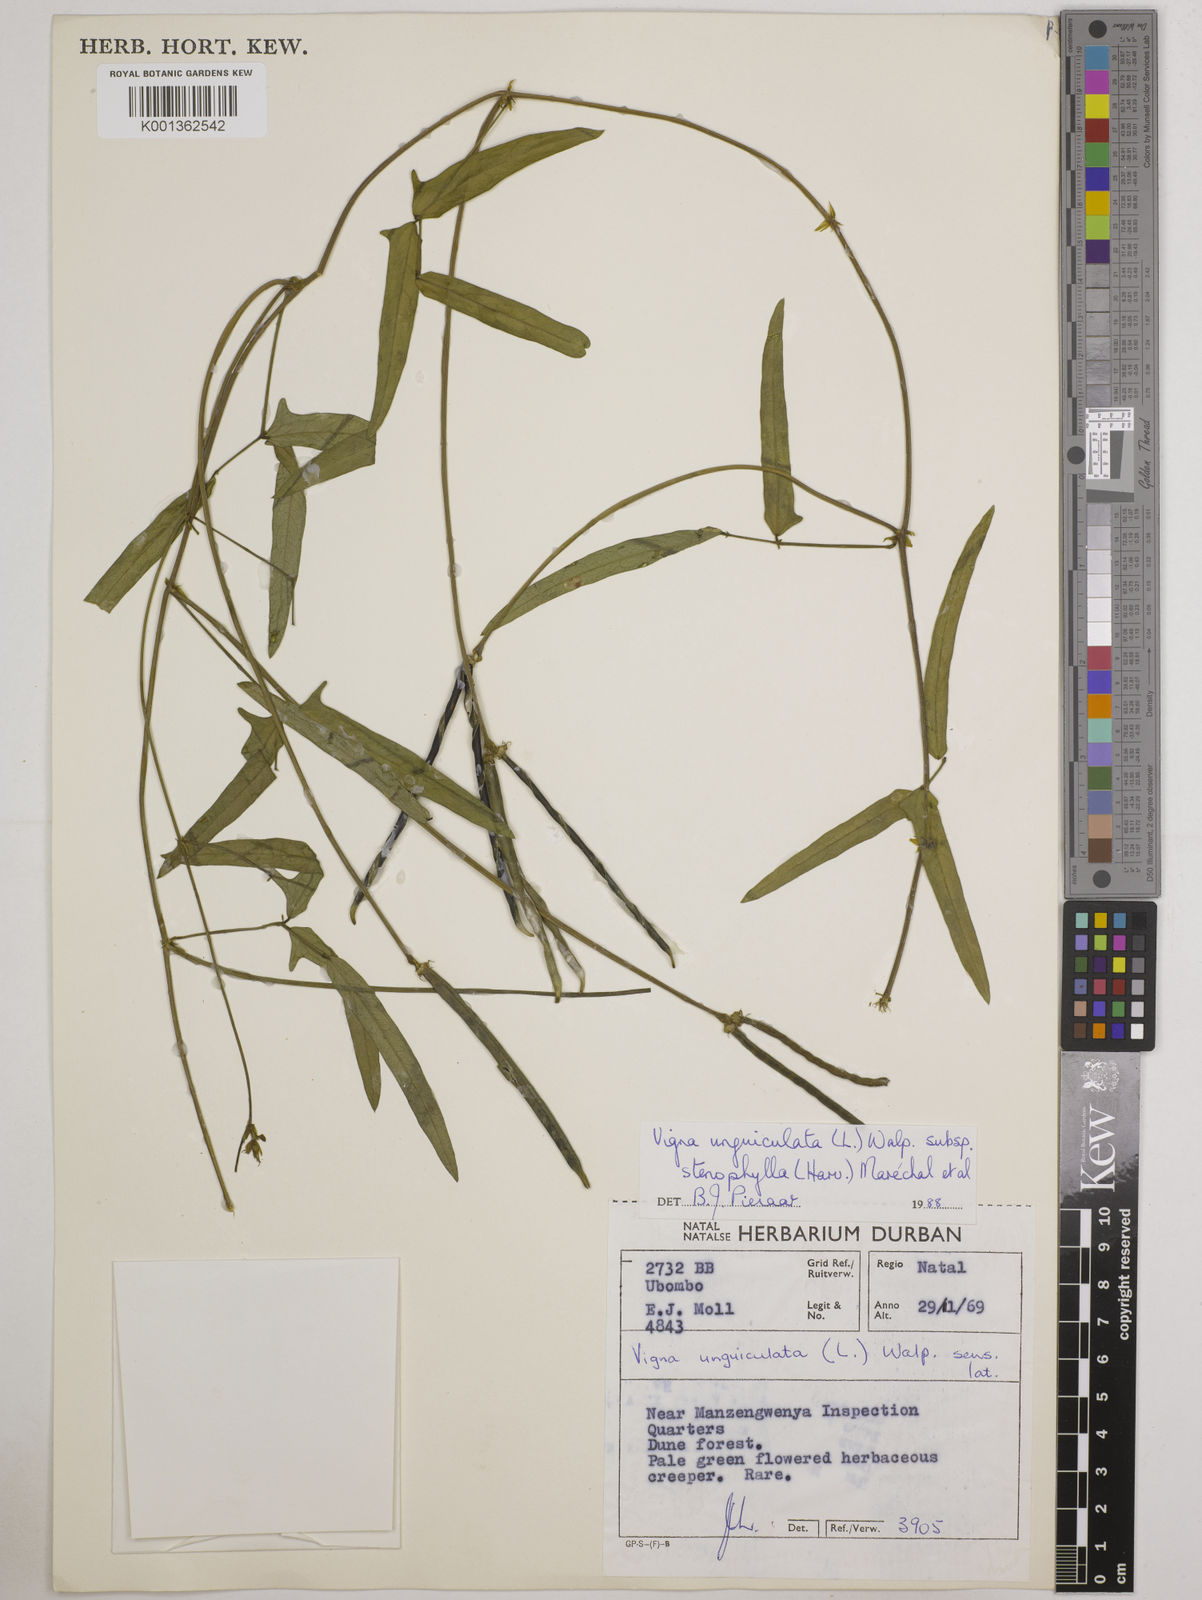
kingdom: Plantae
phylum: Tracheophyta
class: Magnoliopsida
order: Fabales
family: Fabaceae
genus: Vigna
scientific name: Vigna
